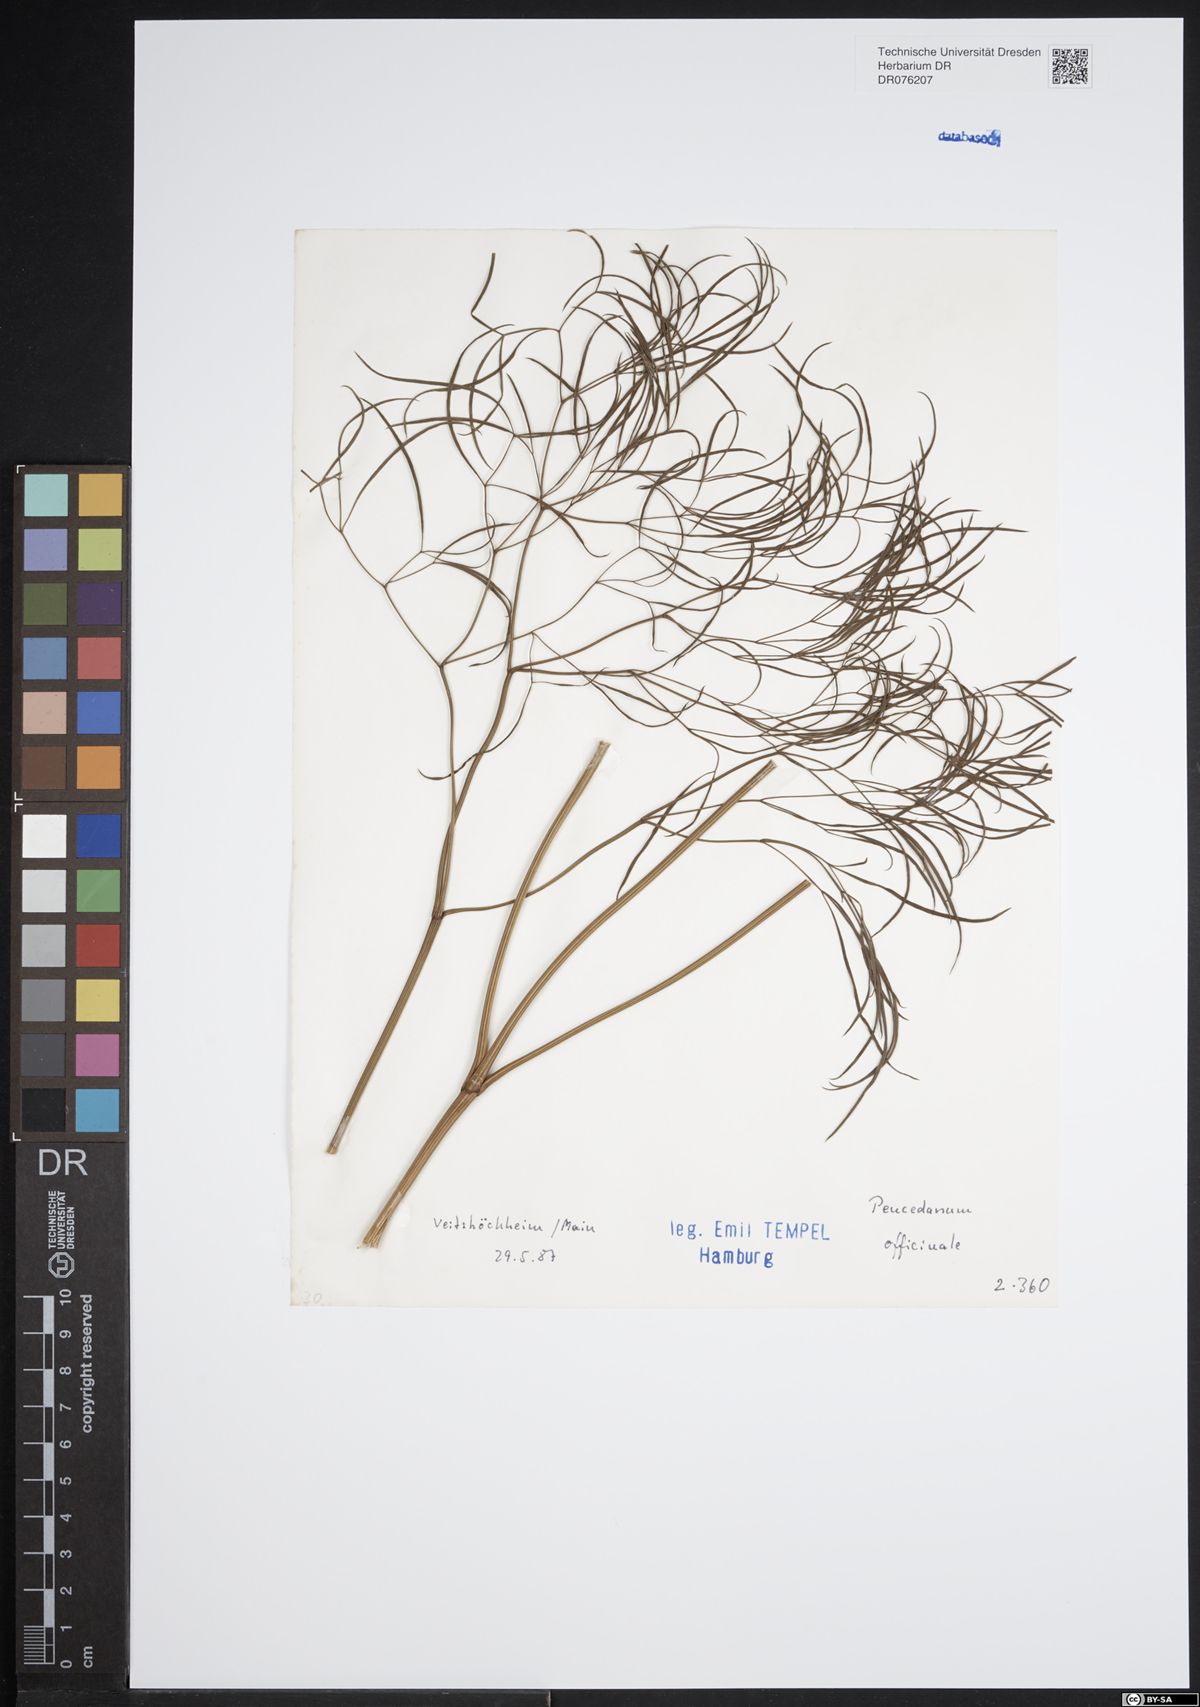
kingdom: Plantae
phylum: Tracheophyta
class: Magnoliopsida
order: Apiales
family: Apiaceae
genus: Peucedanum
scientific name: Peucedanum officinale
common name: Sulphurweed
